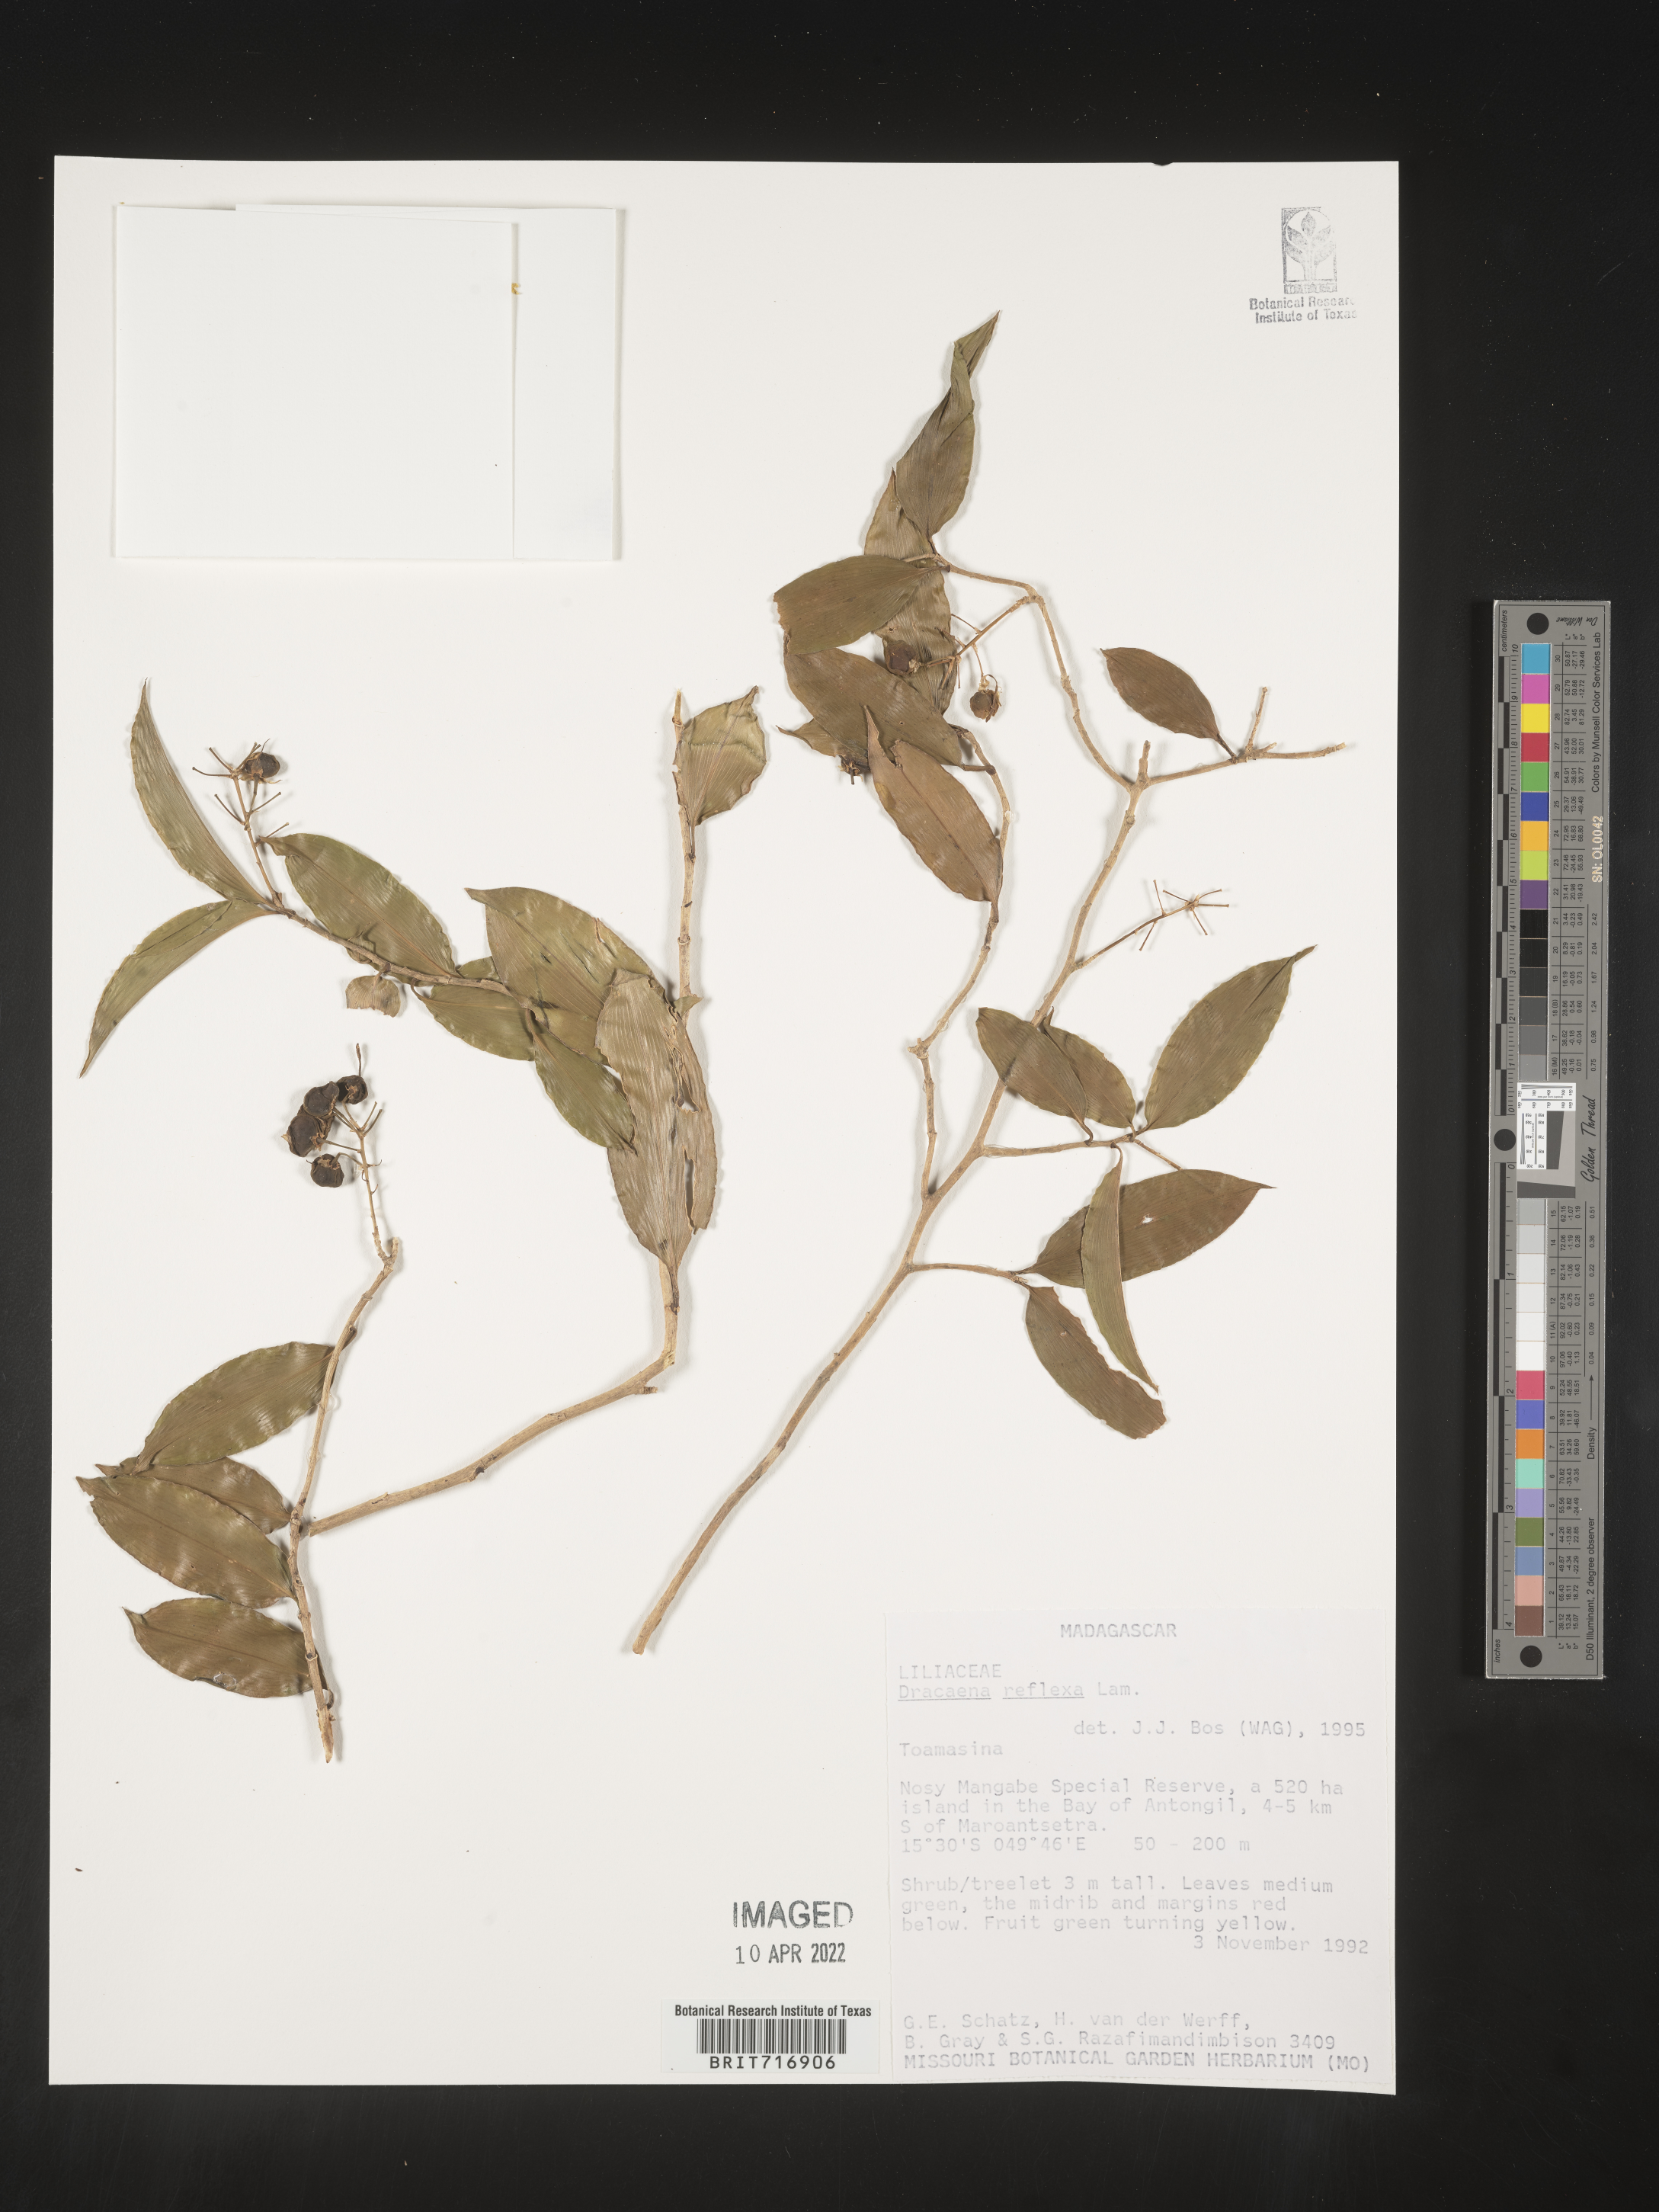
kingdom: Plantae
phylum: Tracheophyta
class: Liliopsida
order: Asparagales
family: Asparagaceae
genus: Dracaena
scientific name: Dracaena
